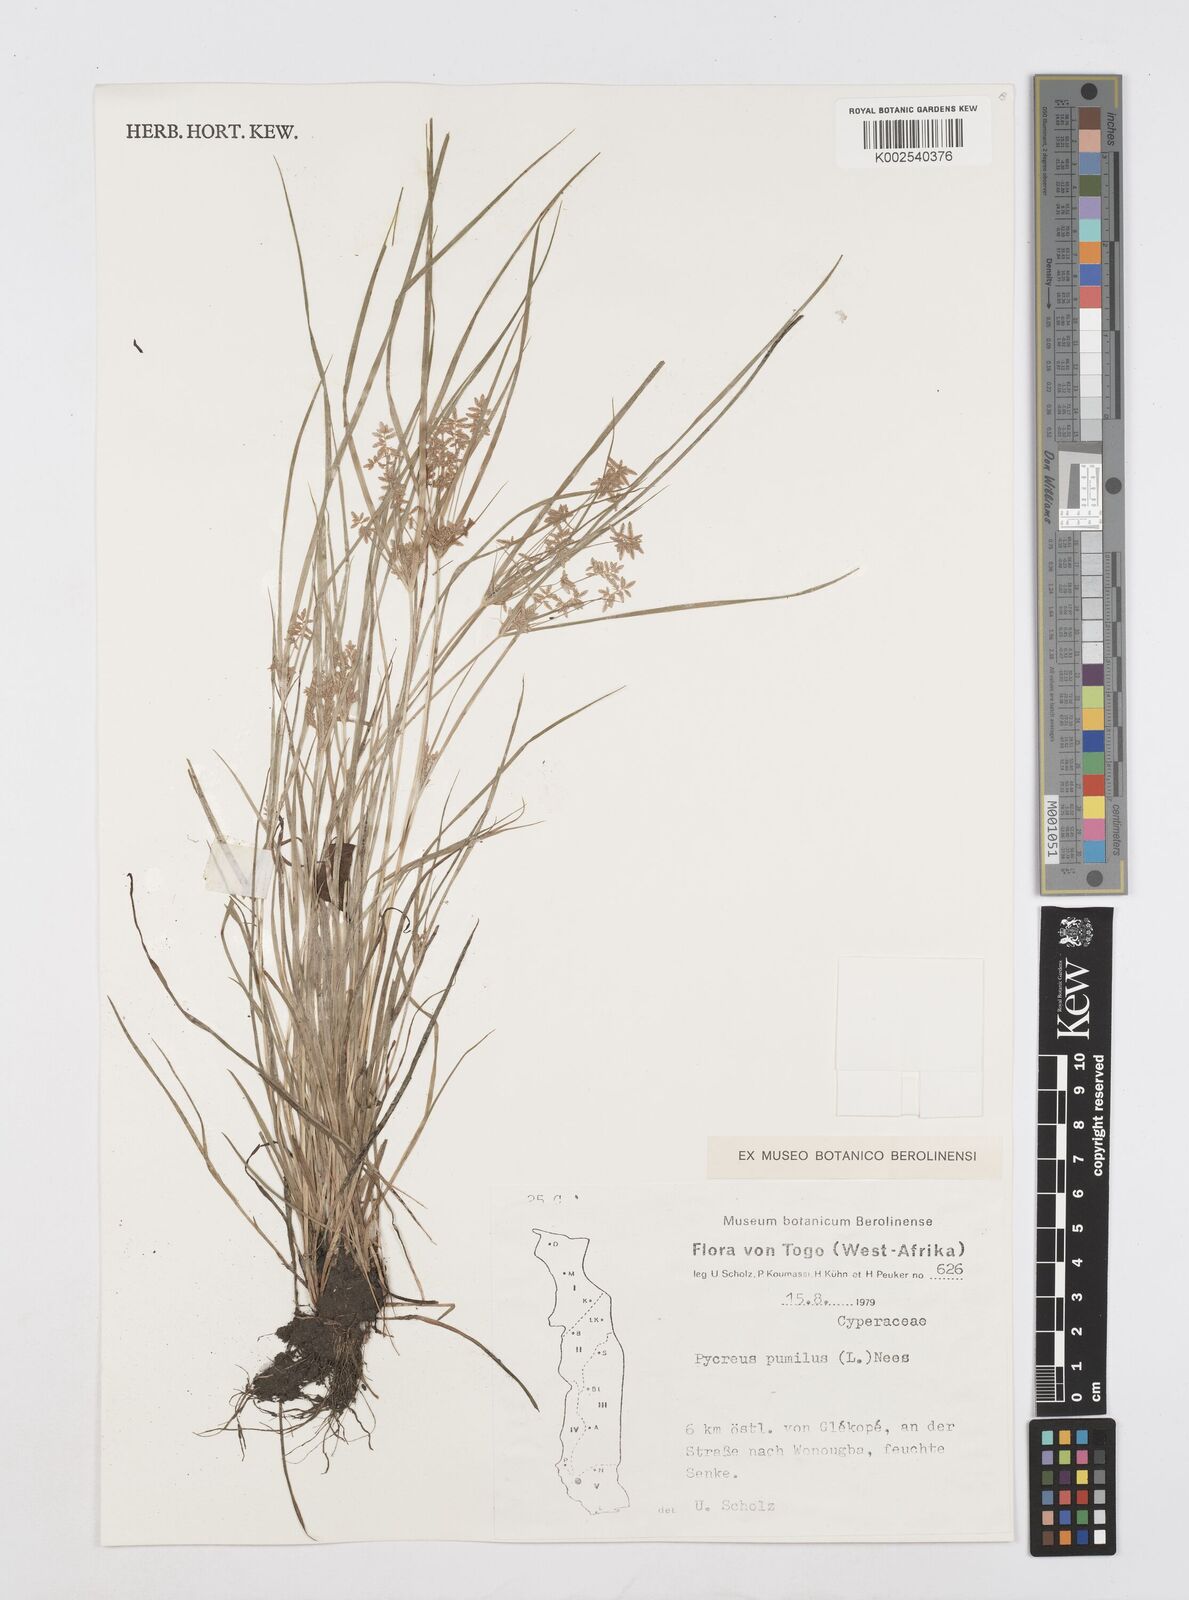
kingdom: Plantae
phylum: Tracheophyta
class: Liliopsida
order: Poales
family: Cyperaceae
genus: Cyperus
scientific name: Cyperus pumilus
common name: Low flatsedge
